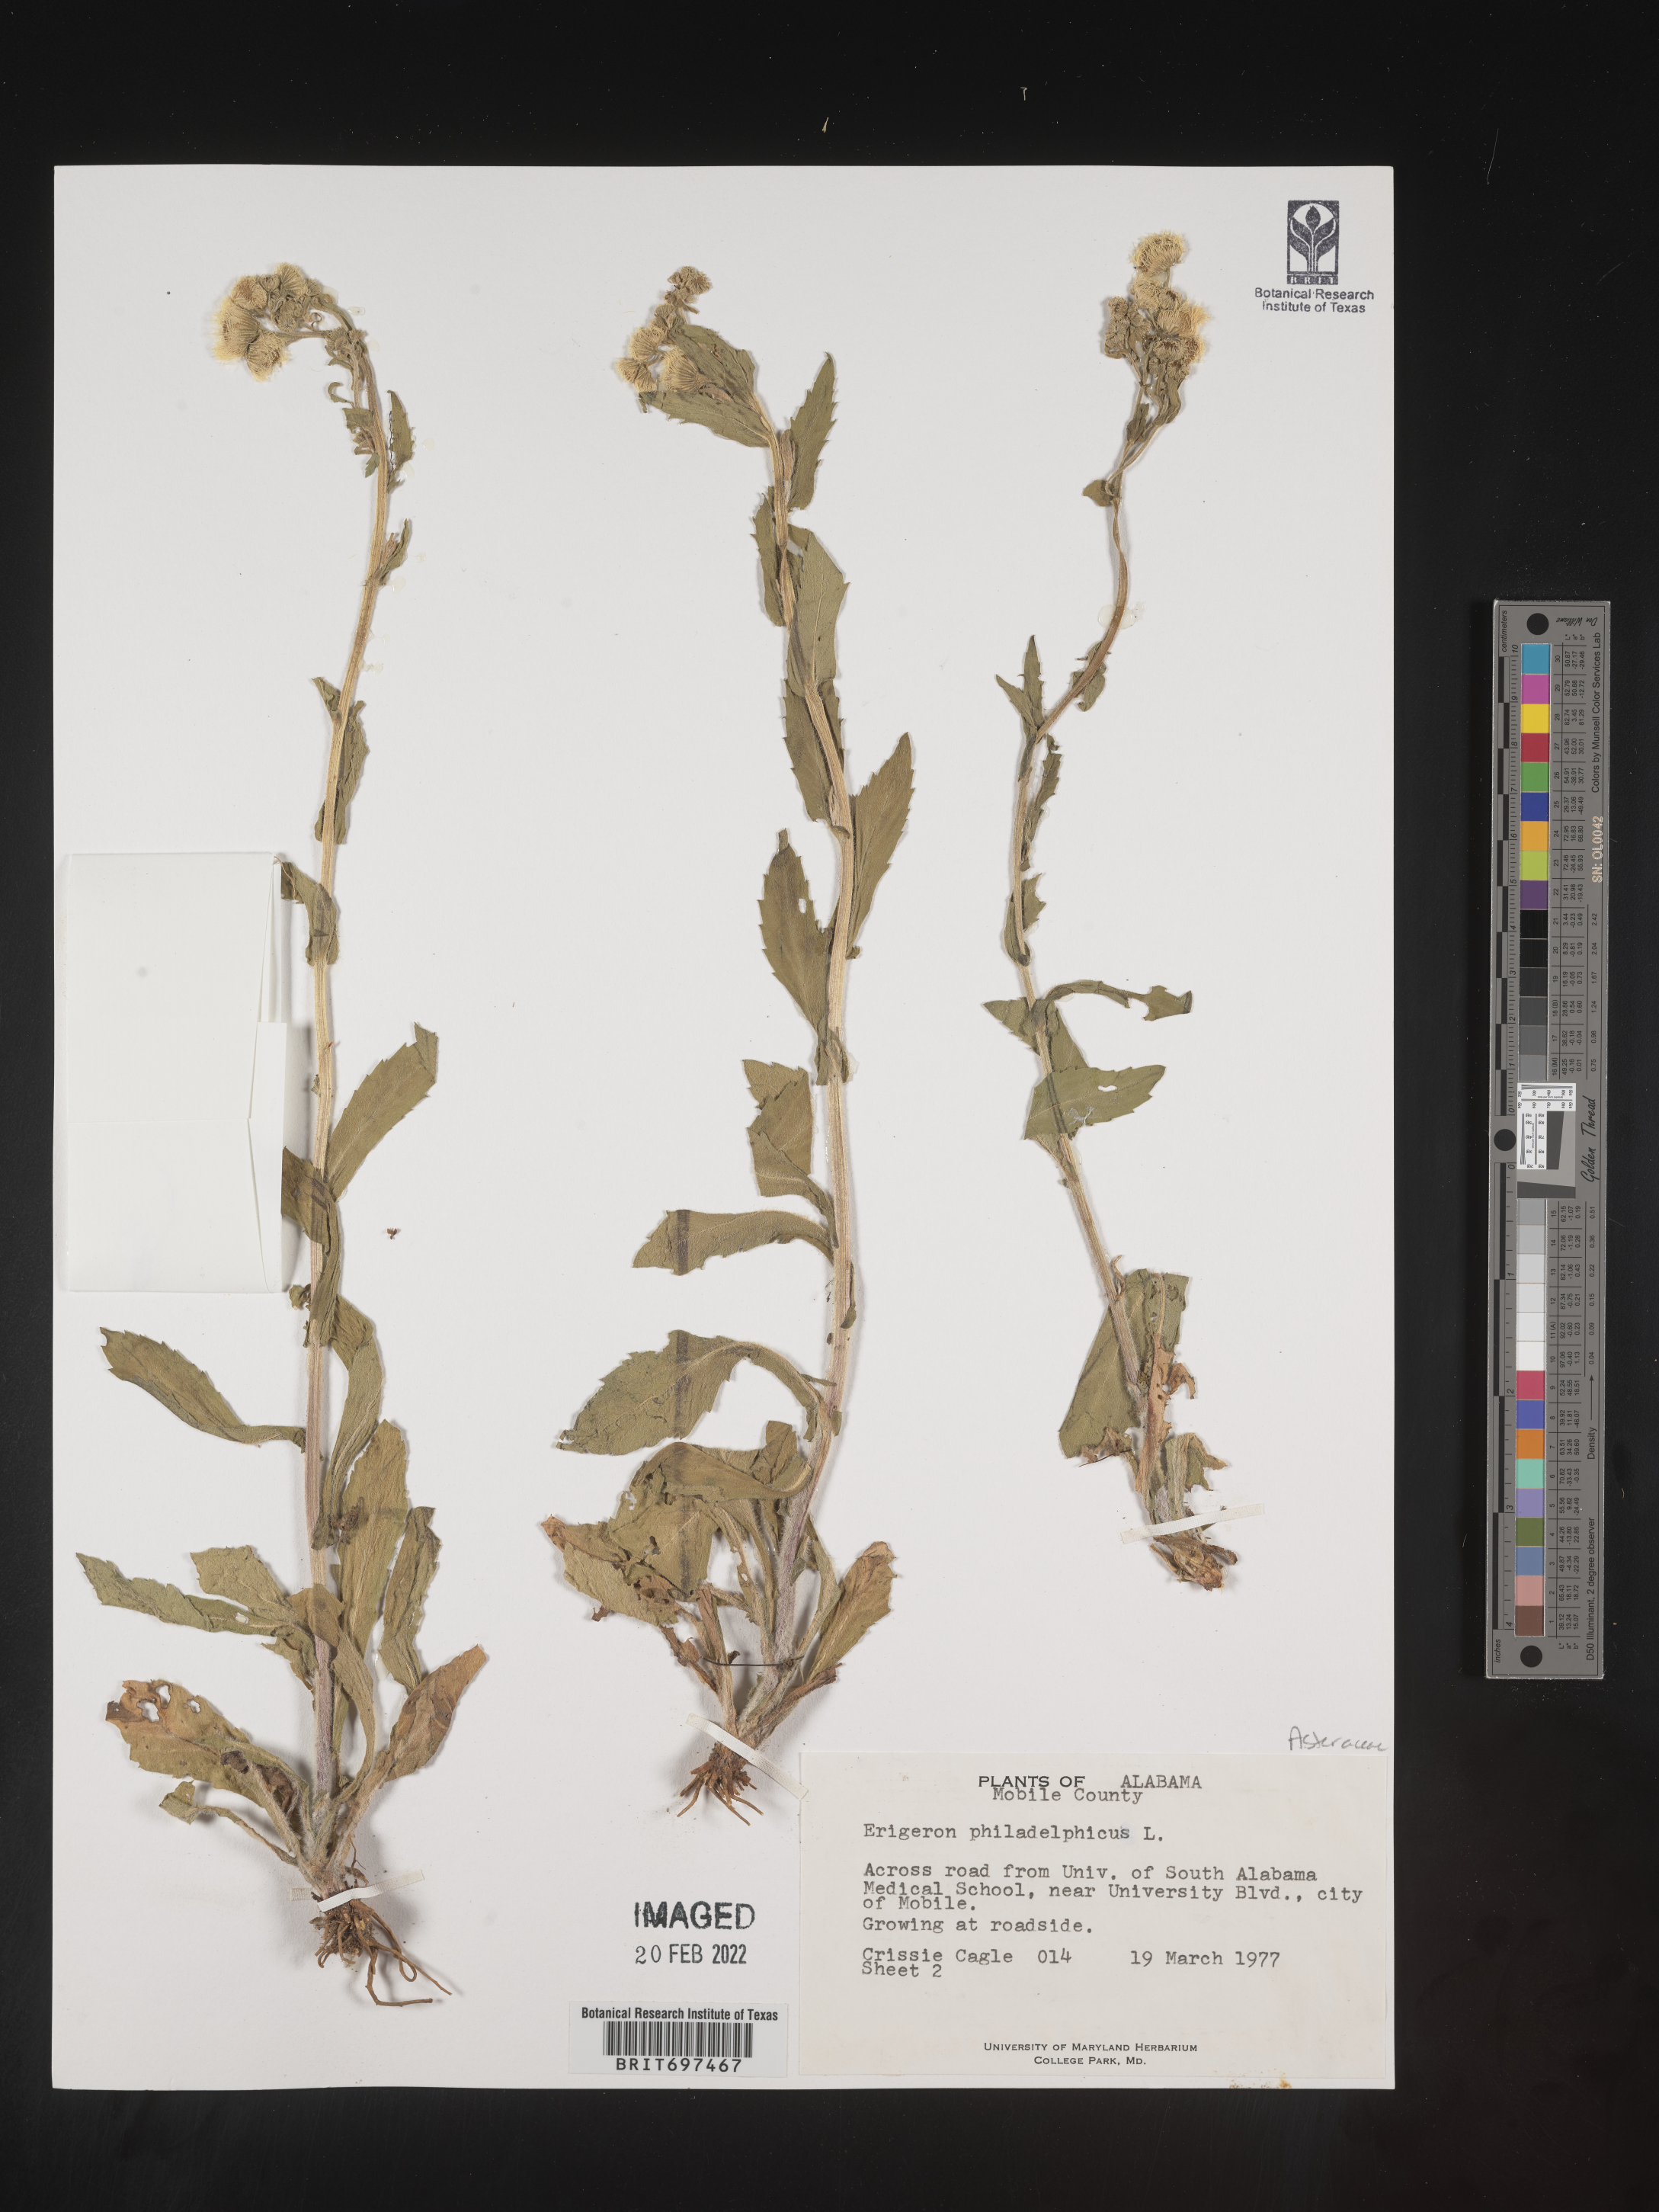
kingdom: Plantae
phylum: Tracheophyta
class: Magnoliopsida
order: Asterales
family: Asteraceae
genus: Erigeron
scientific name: Erigeron philadelphicus
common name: Robin's-plantain
